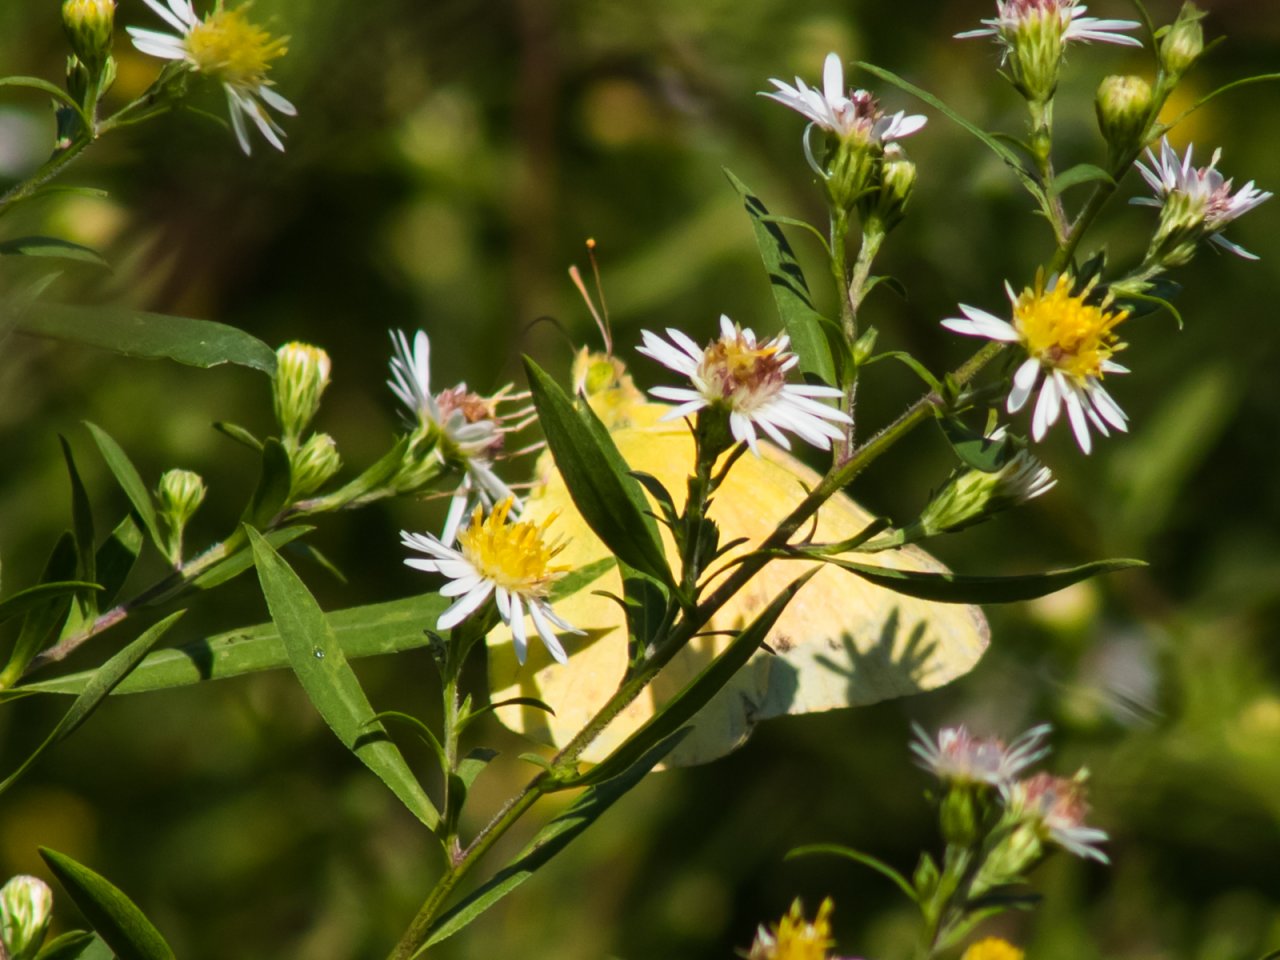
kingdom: Animalia
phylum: Arthropoda
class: Insecta
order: Lepidoptera
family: Pieridae
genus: Colias
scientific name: Colias eurytheme
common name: Orange Sulphur
